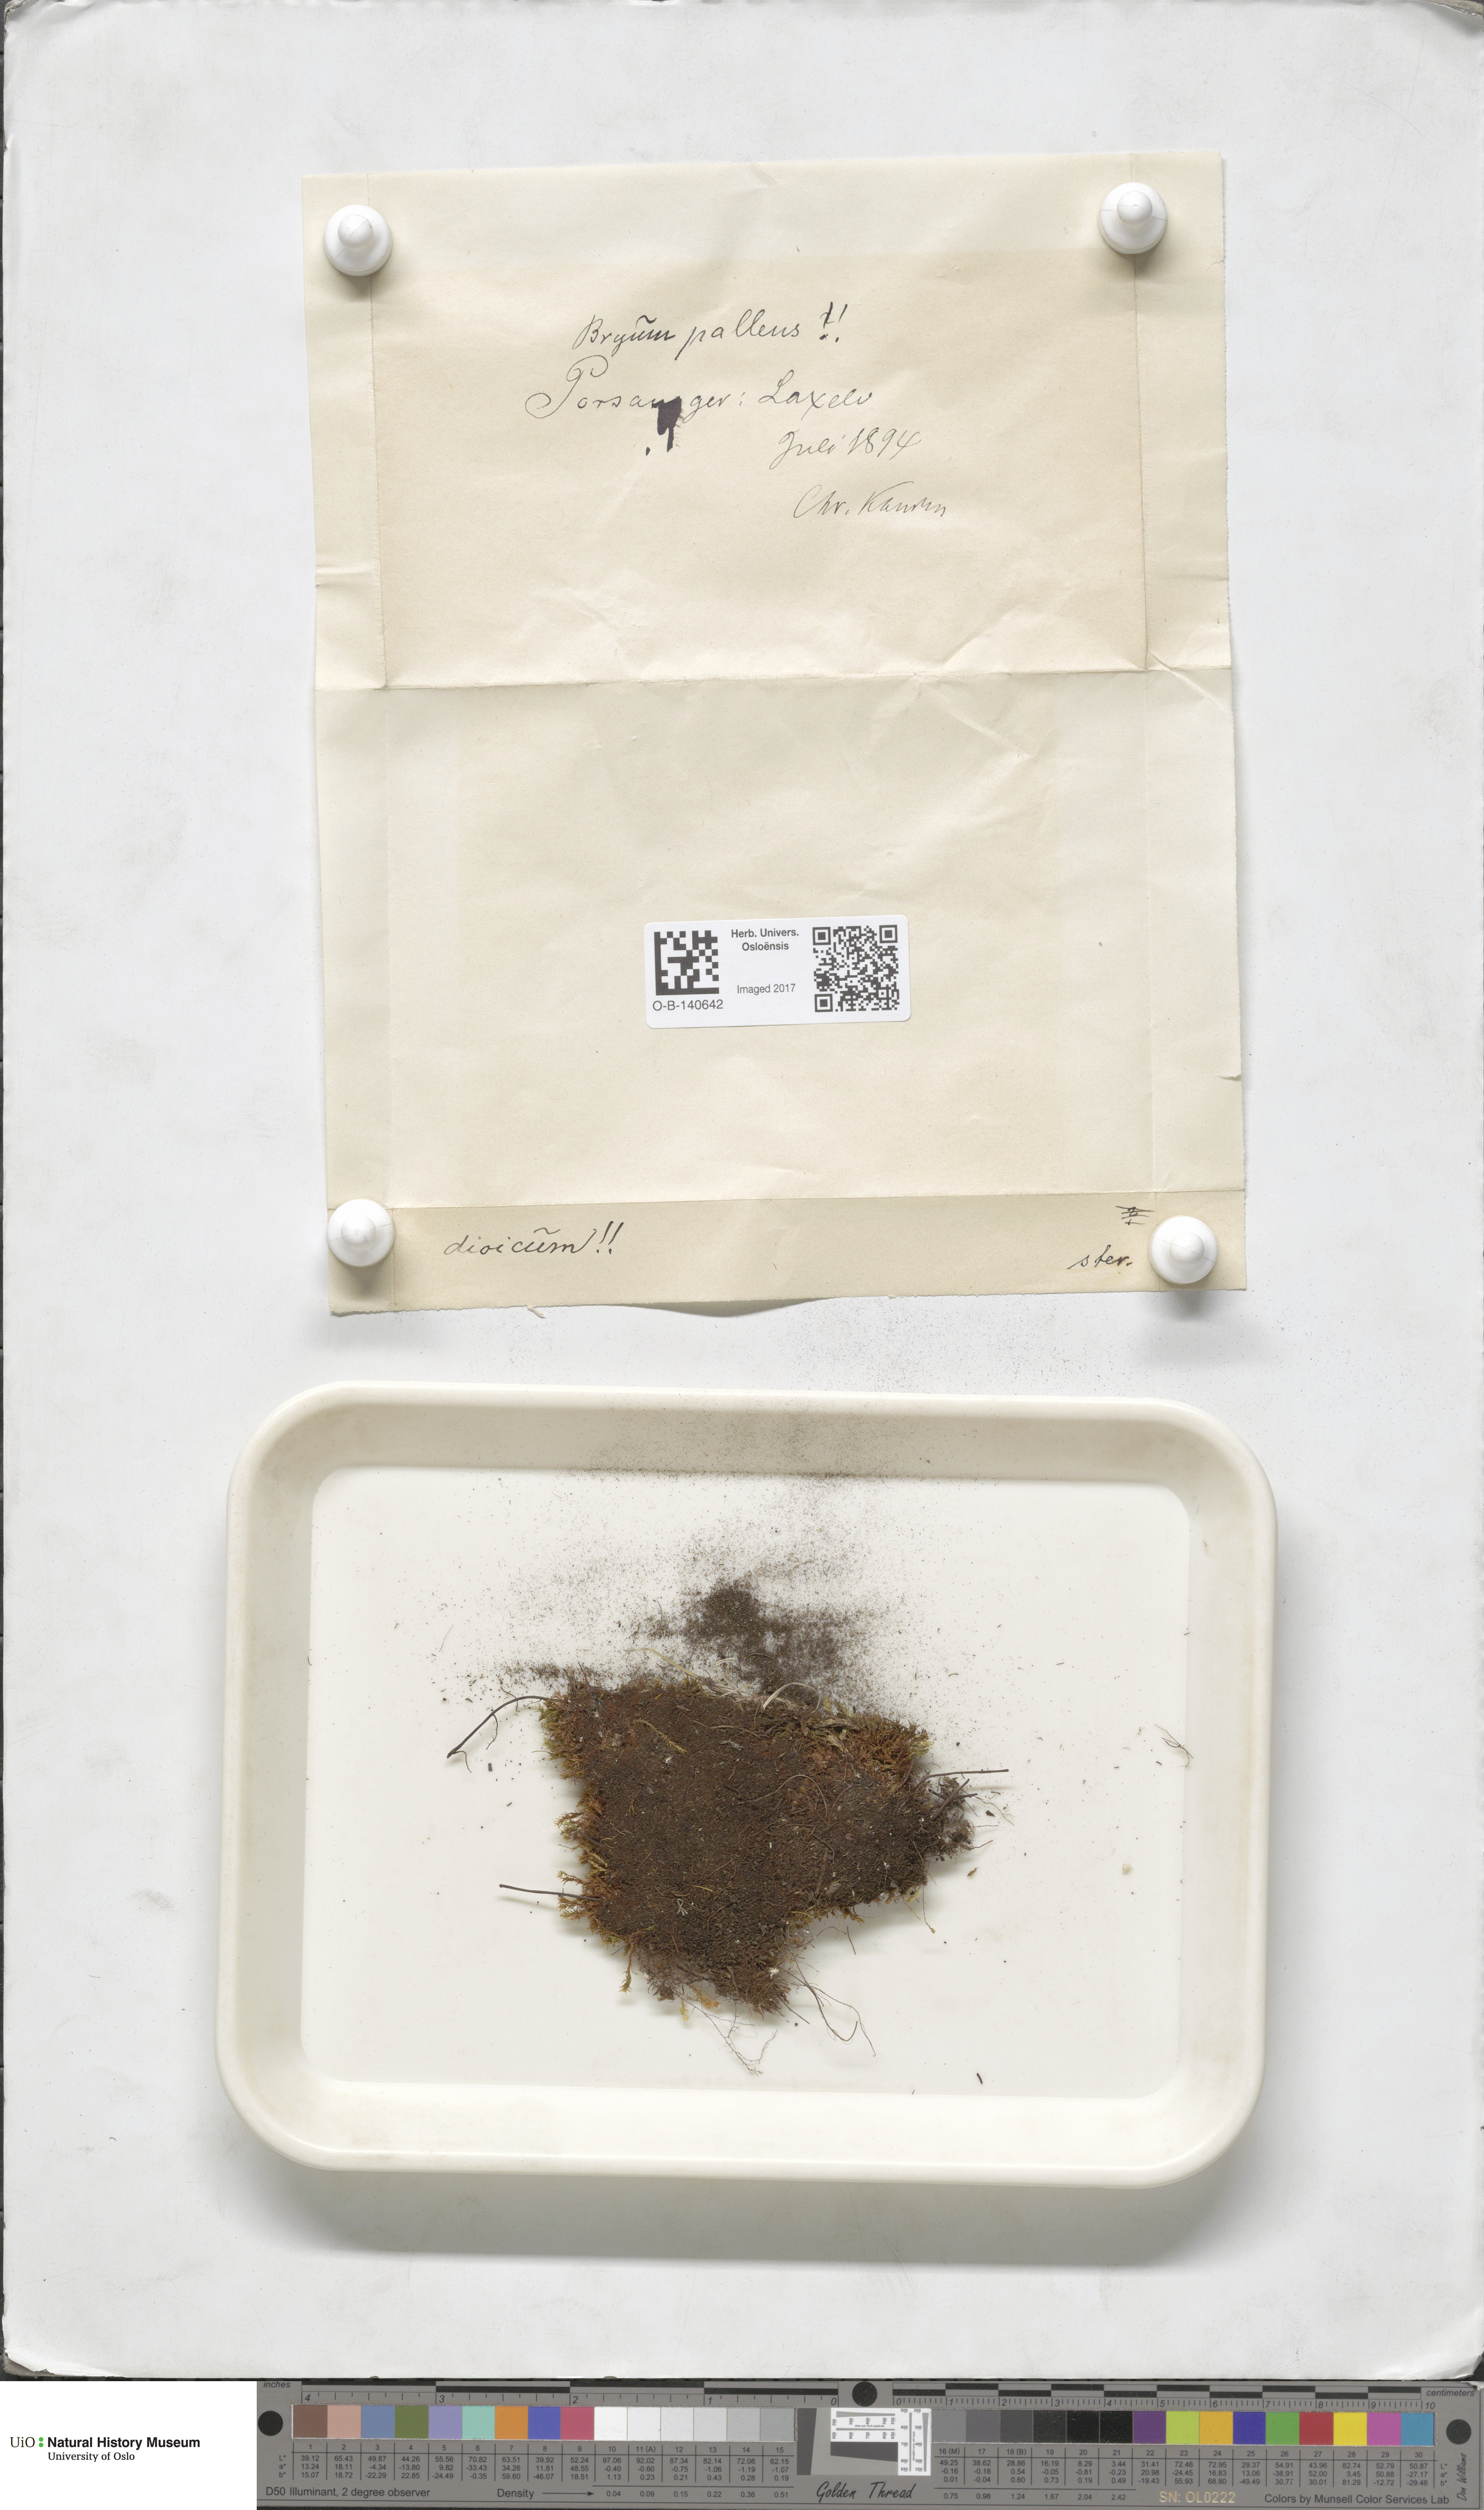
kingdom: Plantae
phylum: Bryophyta
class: Bryopsida
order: Bryales
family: Bryaceae
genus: Ptychostomum
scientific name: Ptychostomum pallens
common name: Pale thread-moss
